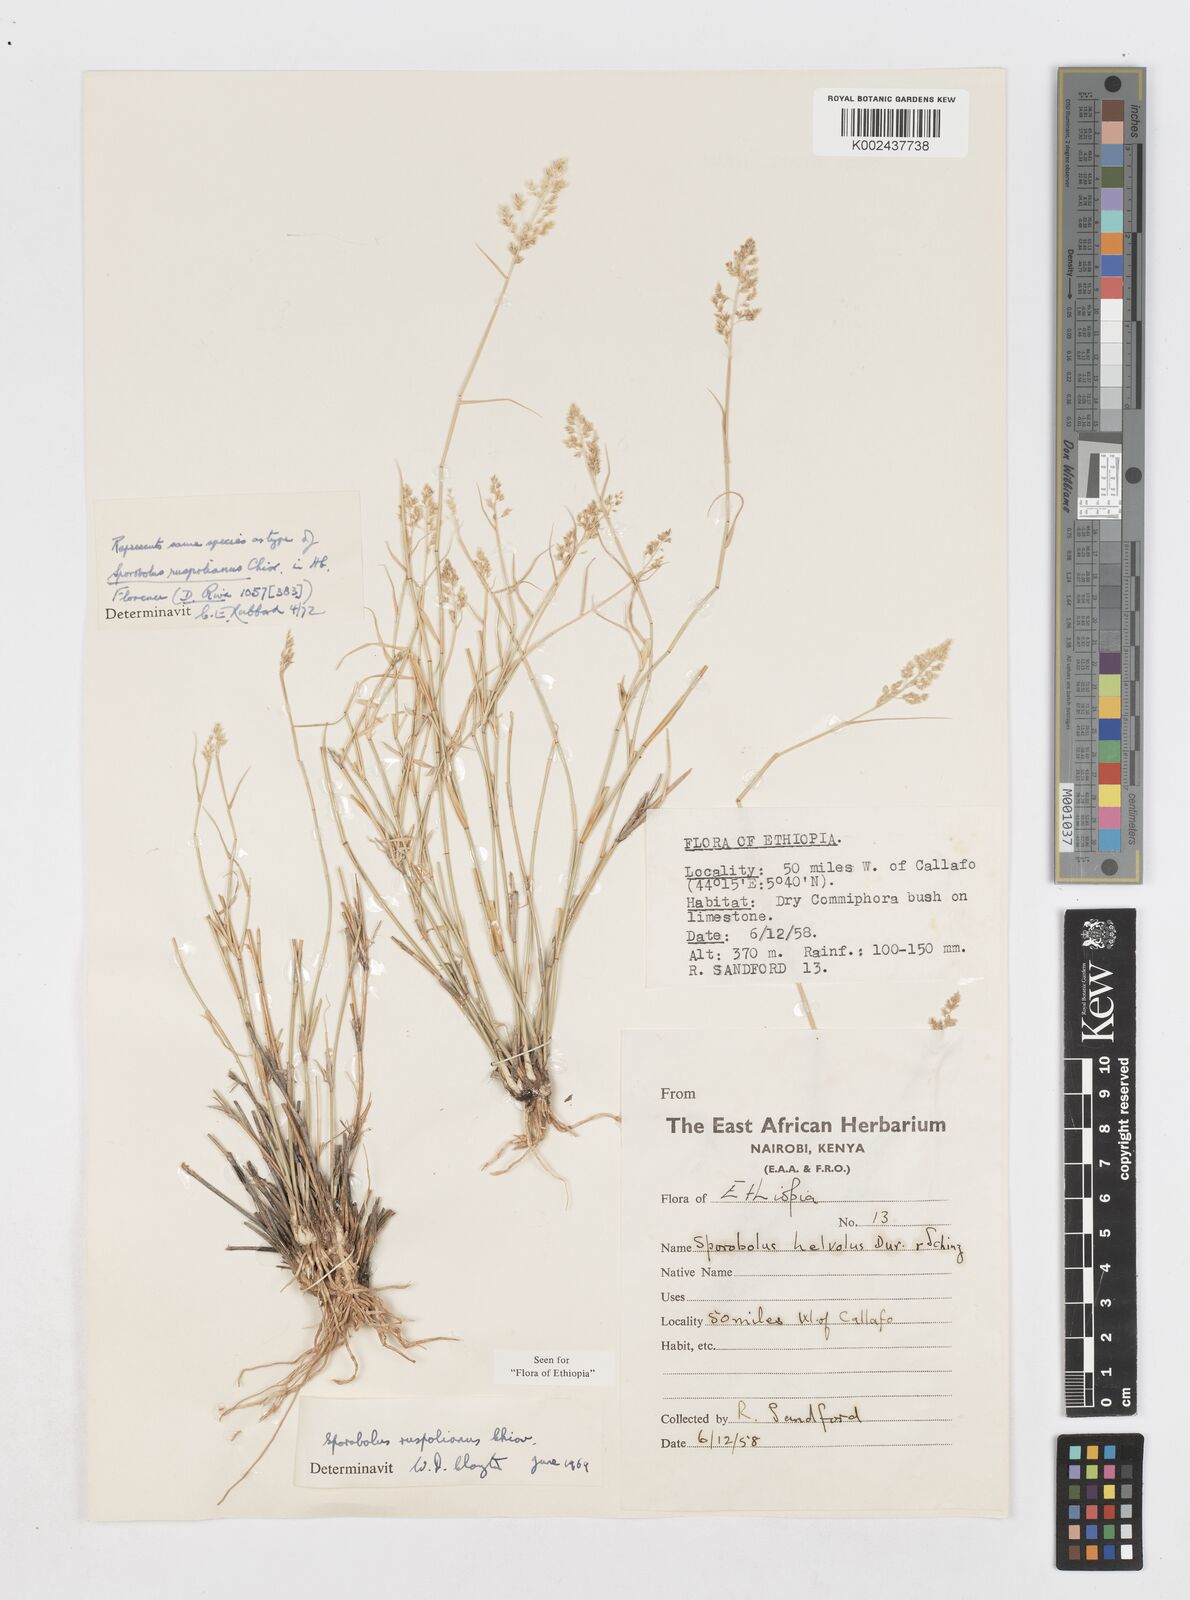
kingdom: Plantae
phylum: Tracheophyta
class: Liliopsida
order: Poales
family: Poaceae
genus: Sporobolus
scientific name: Sporobolus ruspolianus
